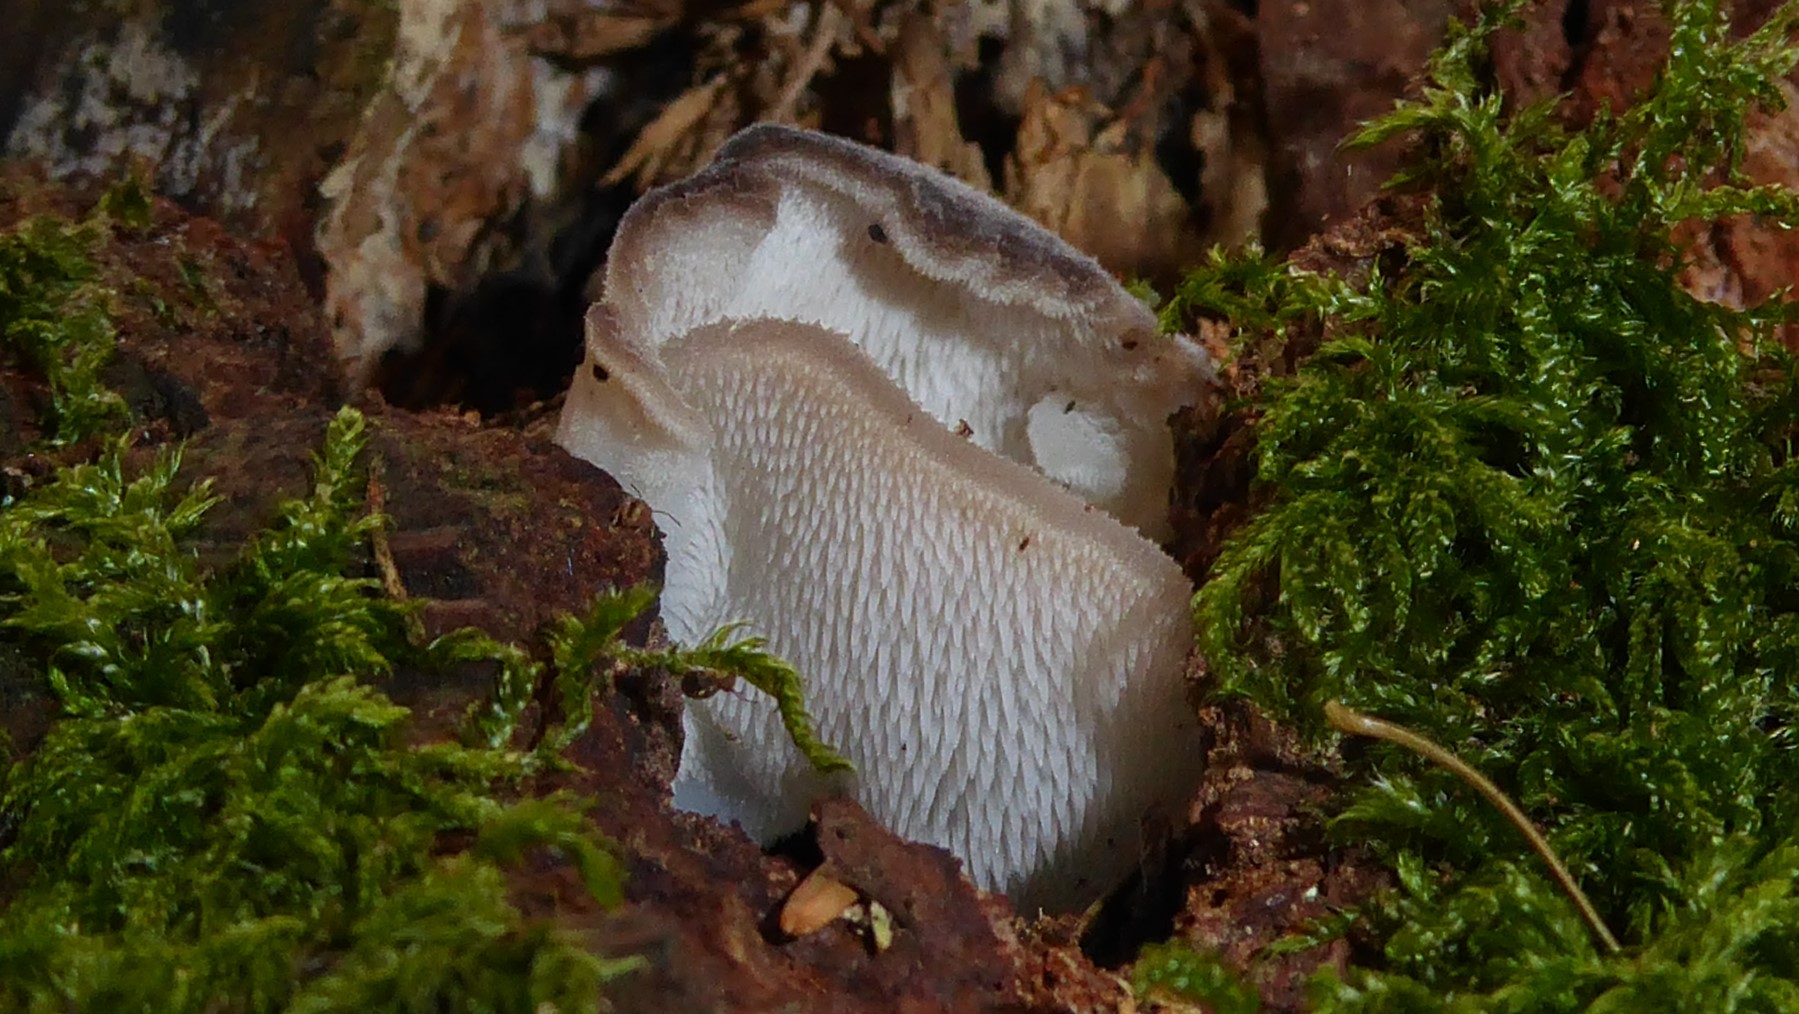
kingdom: Fungi
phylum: Basidiomycota
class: Agaricomycetes
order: Auriculariales
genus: Pseudohydnum
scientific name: Pseudohydnum gelatinosum
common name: bævretand
